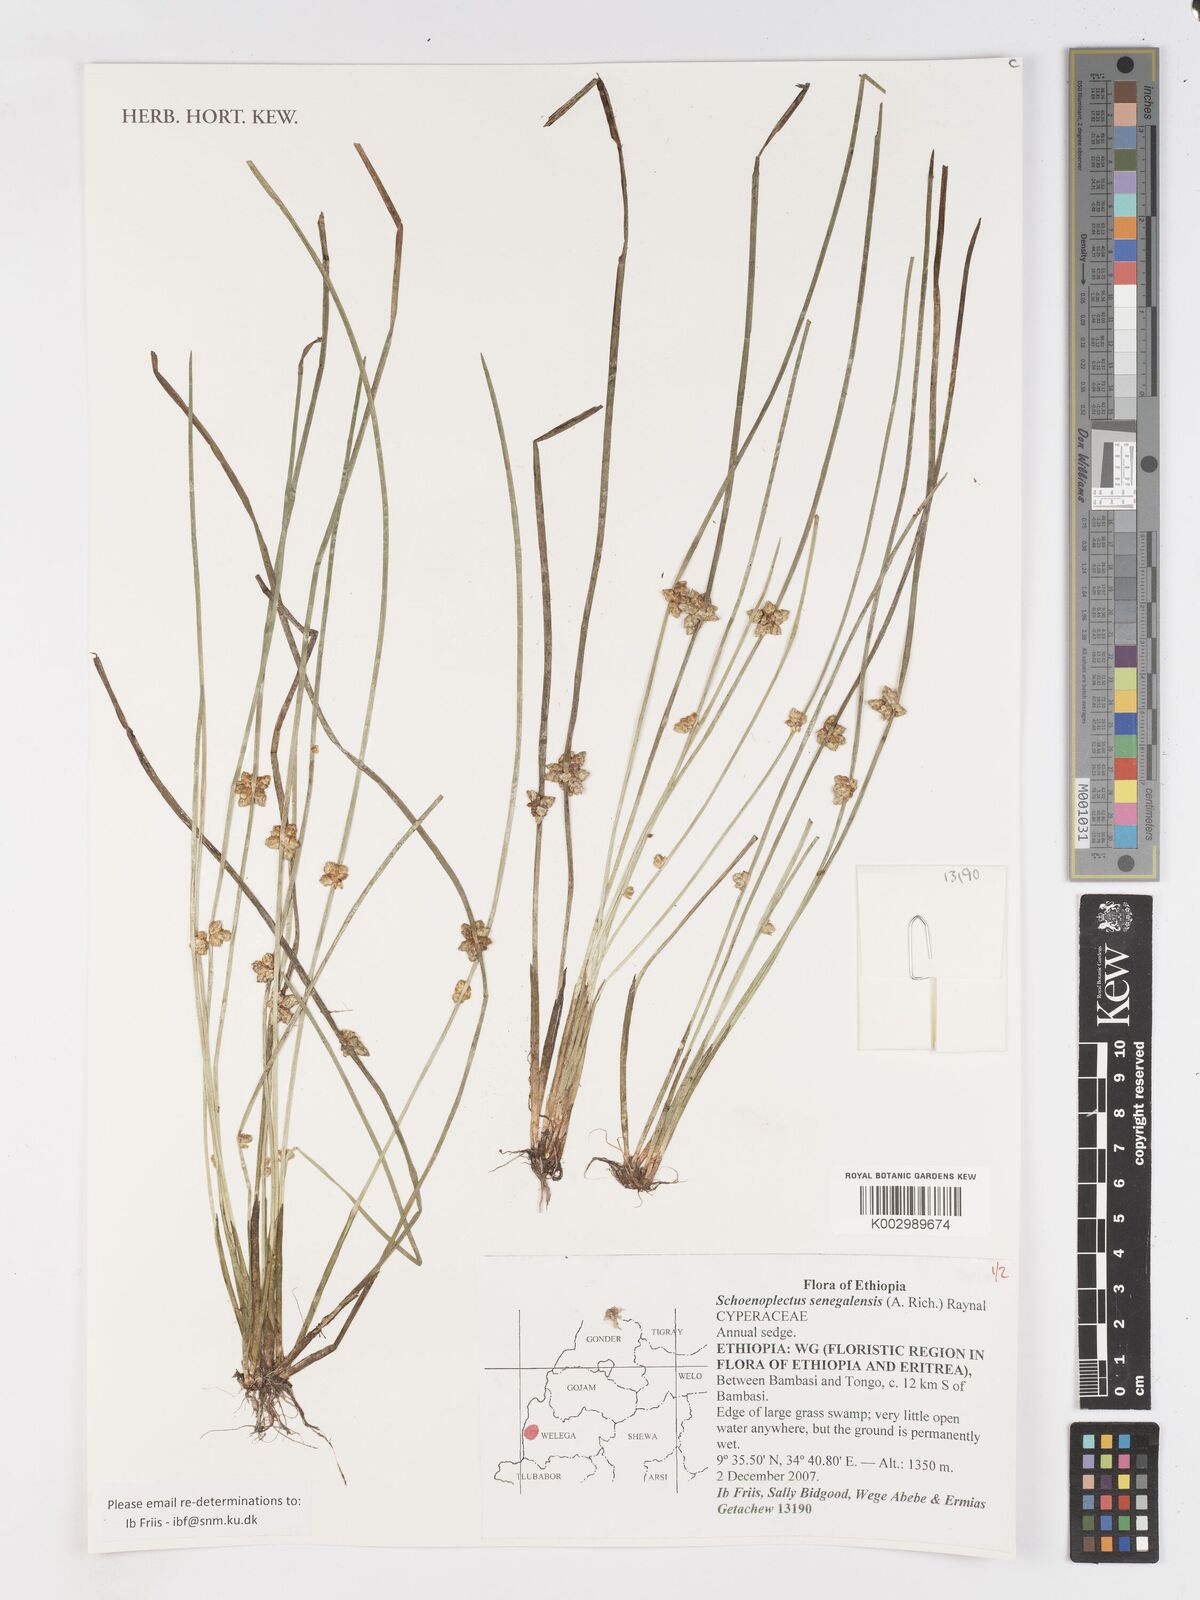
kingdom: Plantae
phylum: Tracheophyta
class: Liliopsida
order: Poales
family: Cyperaceae
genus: Schoenoplectiella
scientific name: Schoenoplectiella senegalensis
